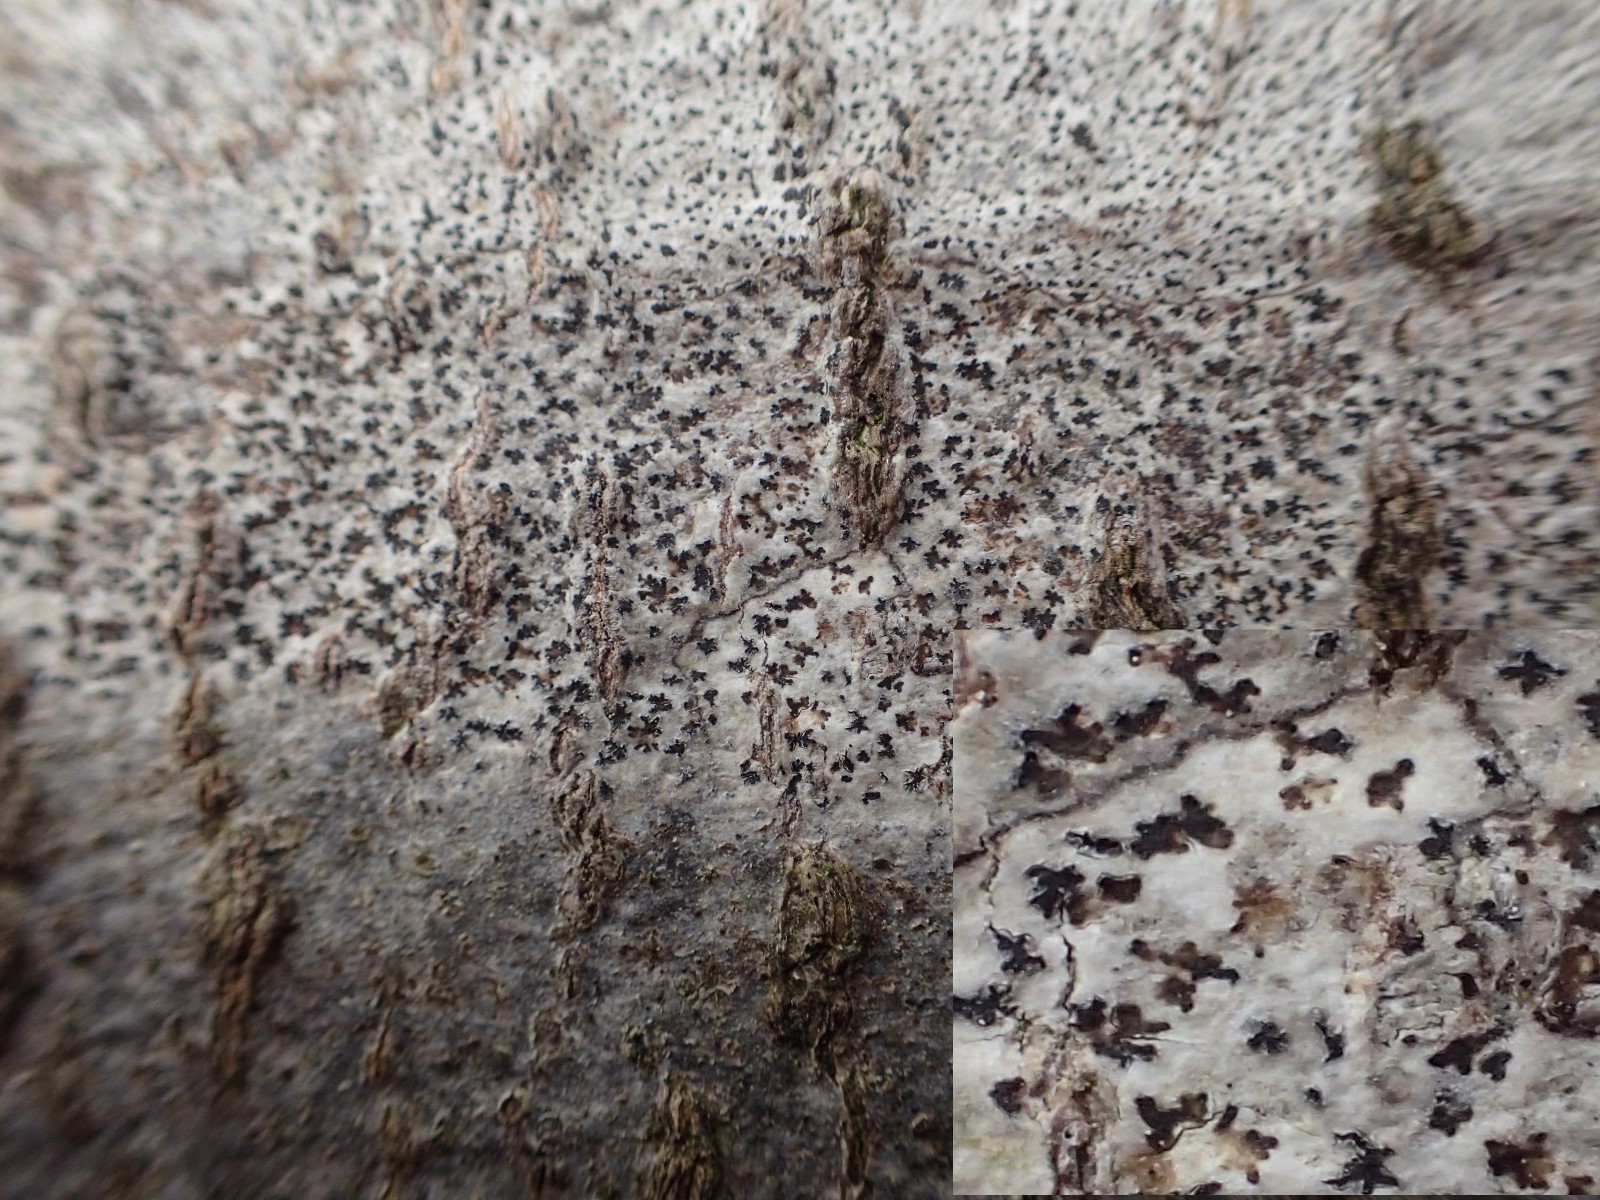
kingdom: Fungi
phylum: Ascomycota
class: Arthoniomycetes
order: Arthoniales
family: Arthoniaceae
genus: Arthonia
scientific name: Arthonia radiata
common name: stjerne-pletlav
